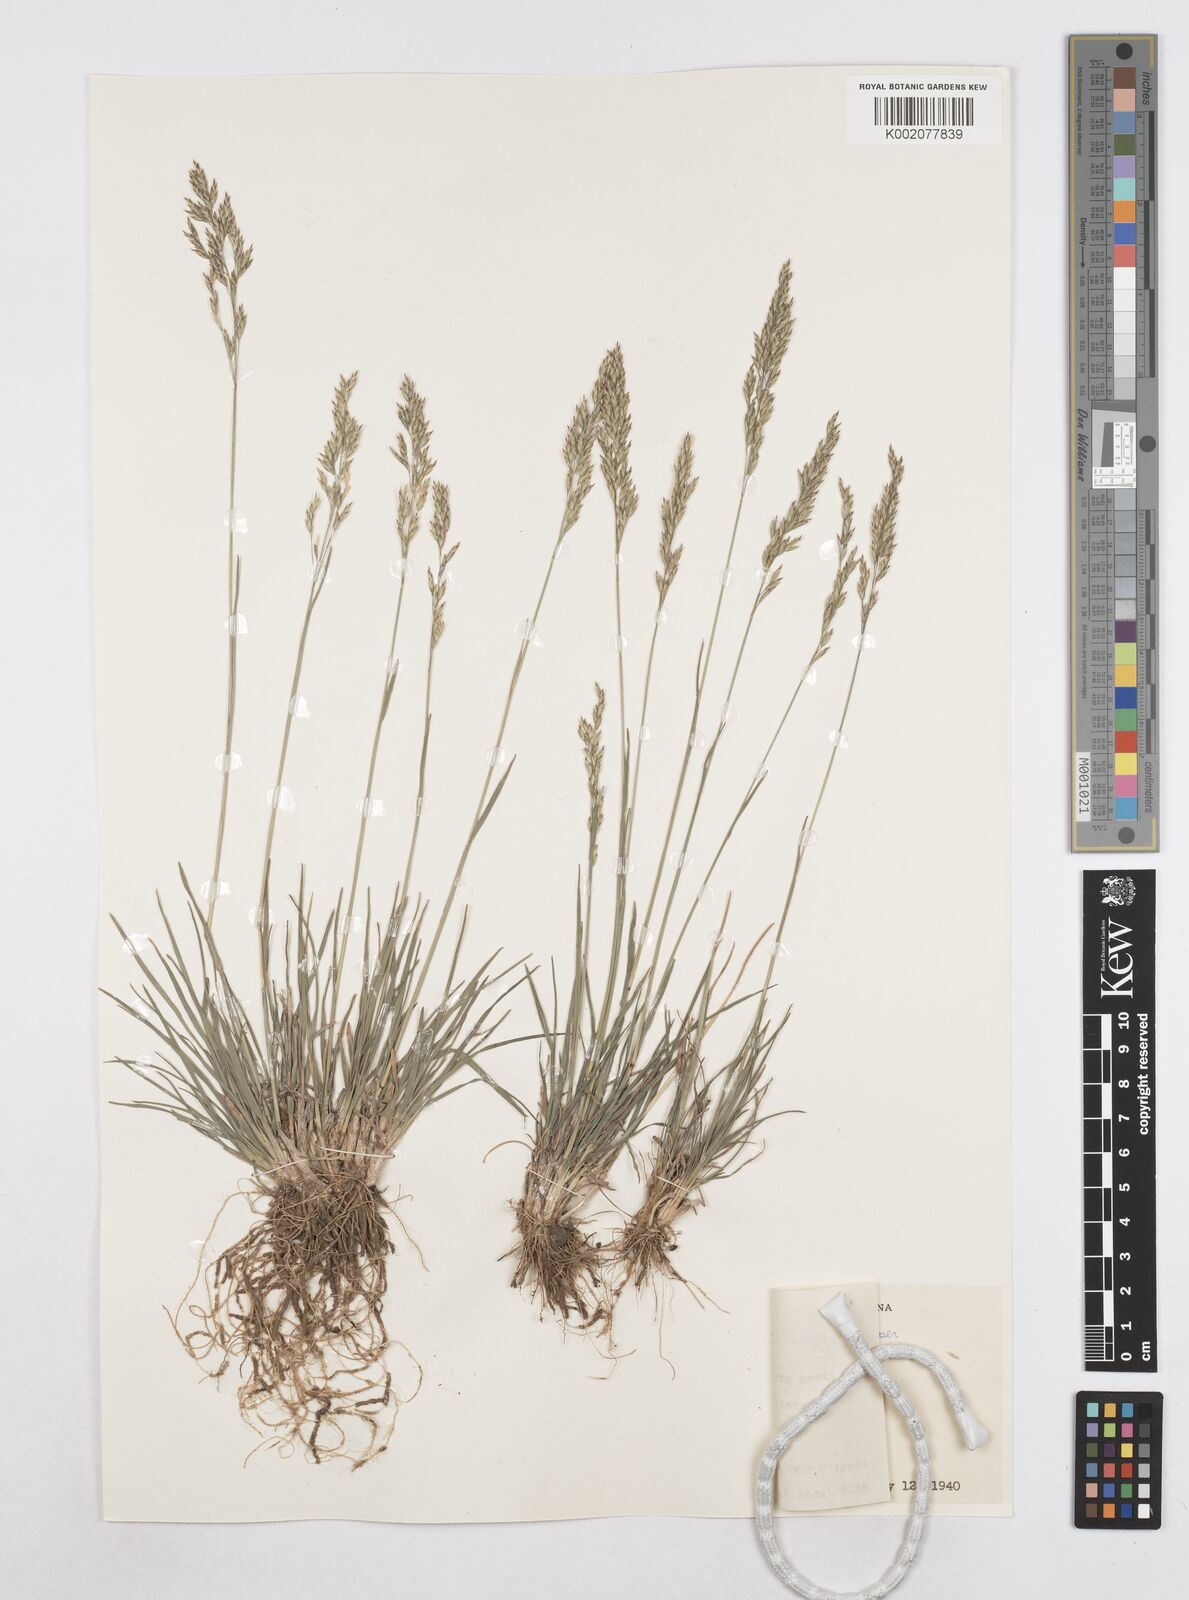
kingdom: Plantae
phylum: Tracheophyta
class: Liliopsida
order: Poales
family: Poaceae
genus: Poa
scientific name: Poa secunda
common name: Sandberg bluegrass
